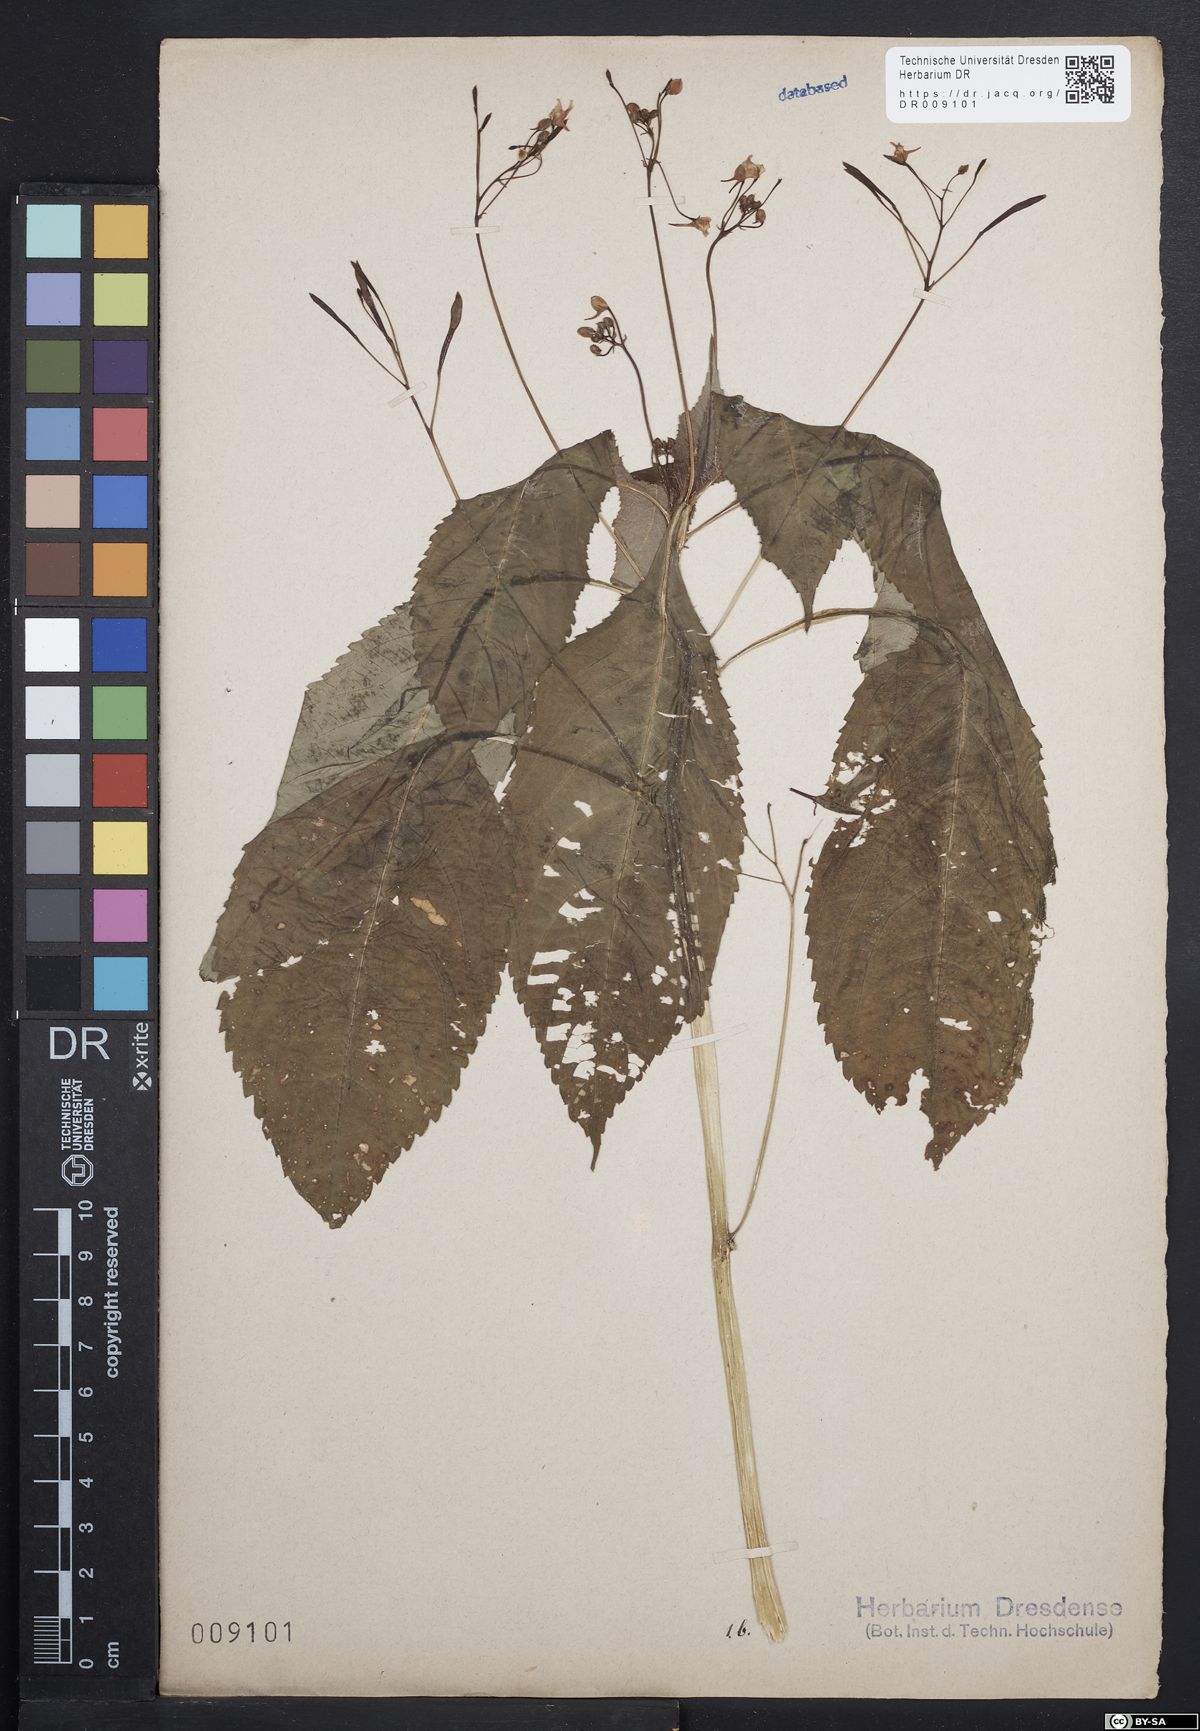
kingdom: Plantae
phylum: Tracheophyta
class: Magnoliopsida
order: Ericales
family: Balsaminaceae
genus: Impatiens
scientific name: Impatiens parviflora
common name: Small balsam
